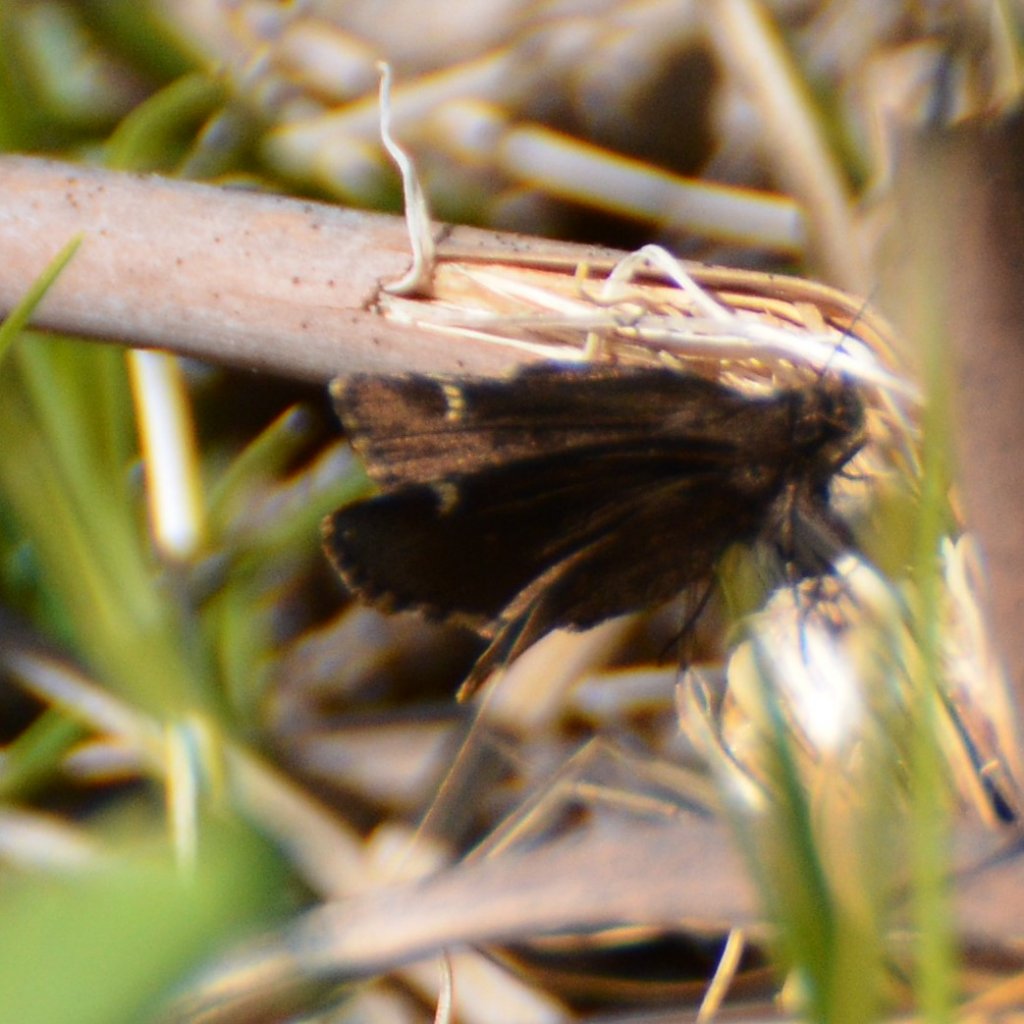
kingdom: Animalia
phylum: Arthropoda
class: Insecta
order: Lepidoptera
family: Hesperiidae
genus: Mastor
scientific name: Mastor vialis
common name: Common Roadside-Skipper
